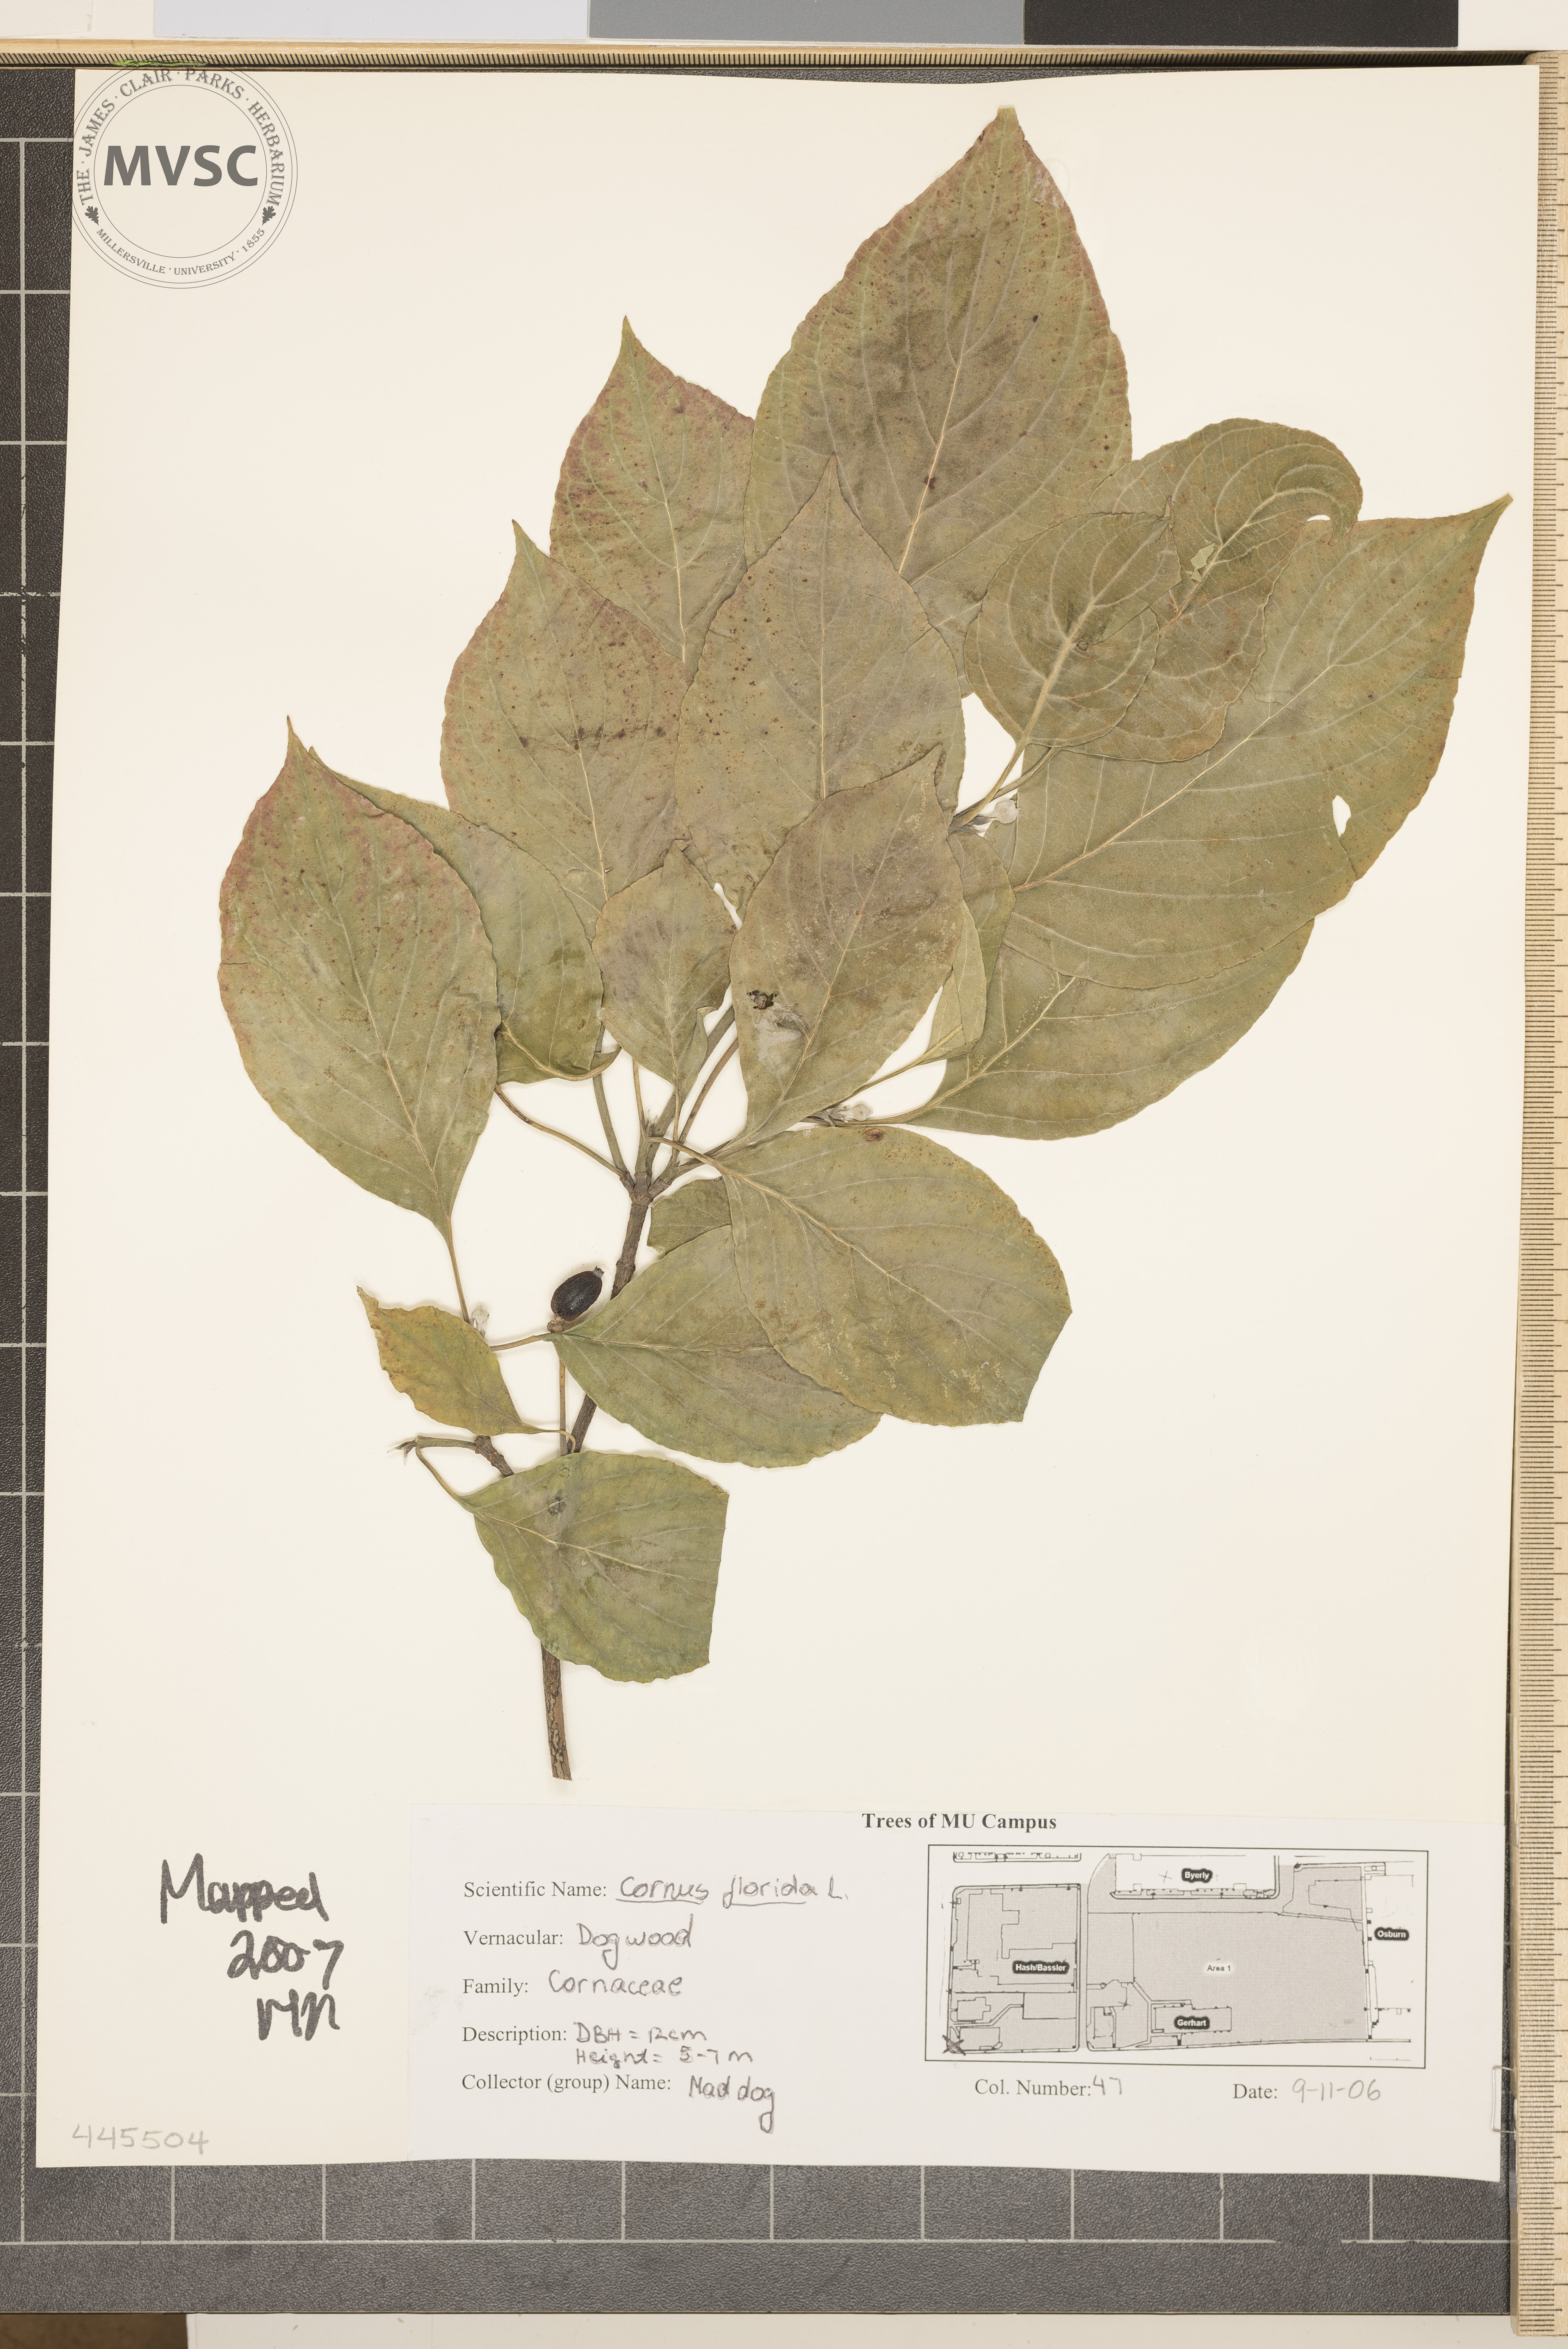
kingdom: Plantae
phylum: Tracheophyta
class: Magnoliopsida
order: Cornales
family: Cornaceae
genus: Cornus
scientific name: Cornus florida
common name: Flowering Dogwood
